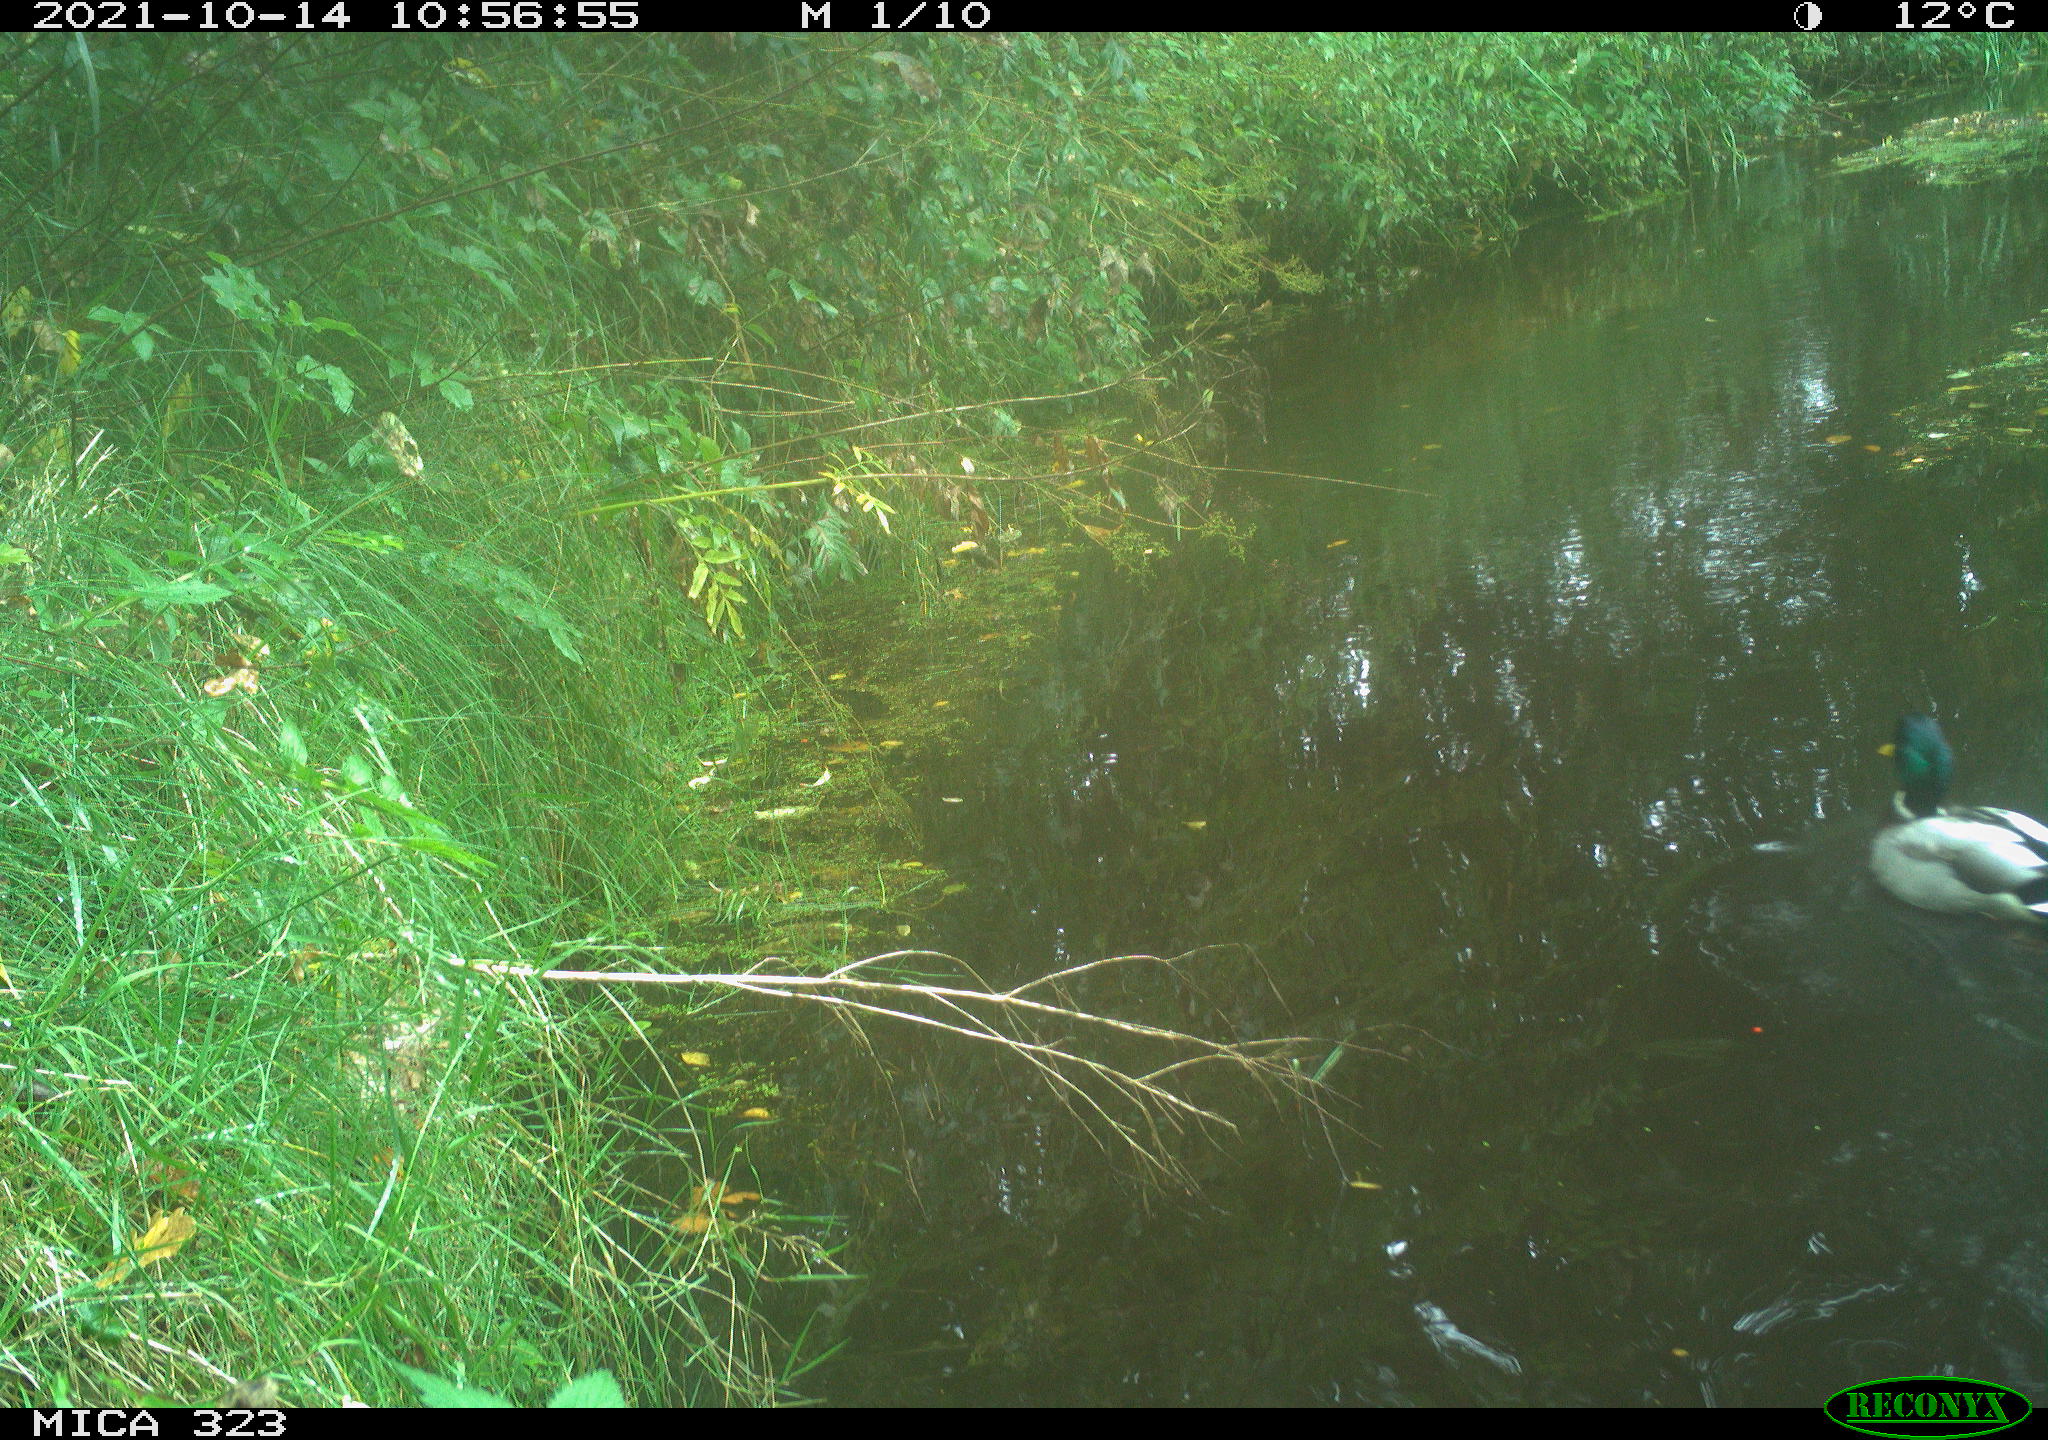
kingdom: Animalia
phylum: Chordata
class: Aves
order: Anseriformes
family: Anatidae
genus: Anas
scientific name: Anas platyrhynchos
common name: Mallard
